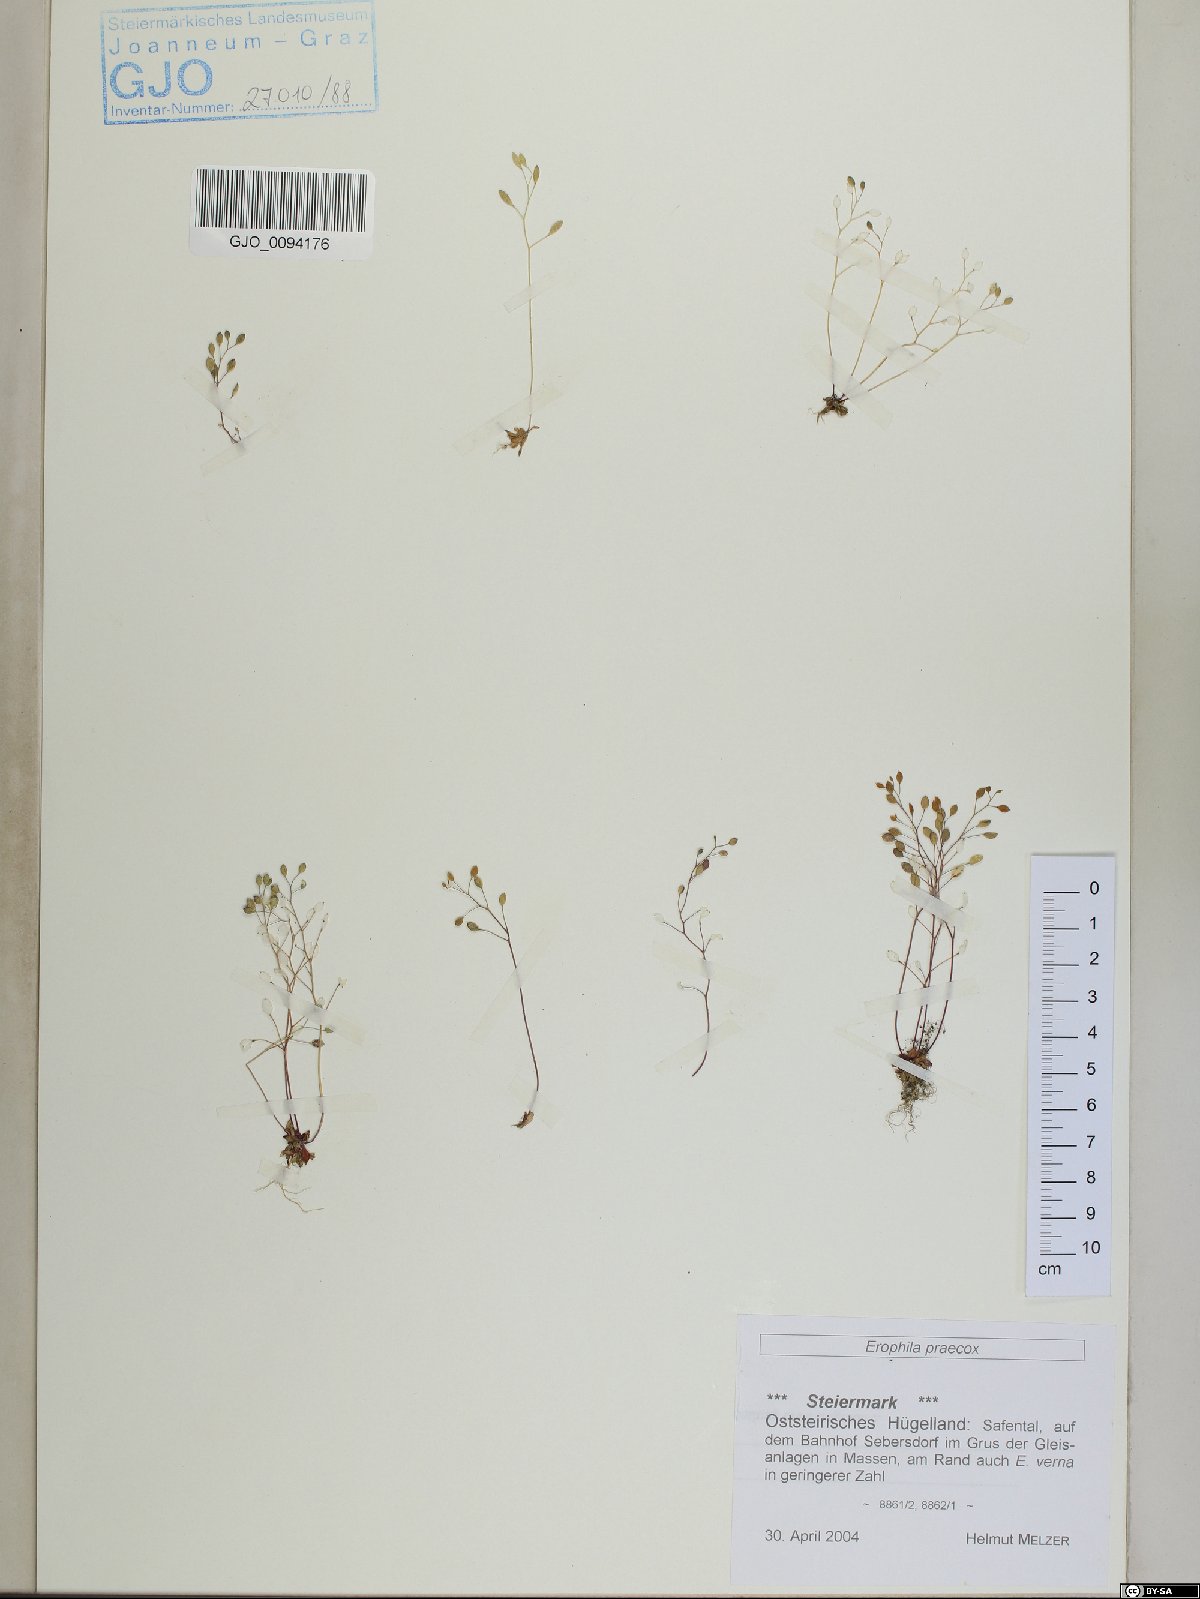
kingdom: Plantae
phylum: Tracheophyta
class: Magnoliopsida
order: Brassicales
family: Brassicaceae
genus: Draba
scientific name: Draba verna
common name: Spring draba
